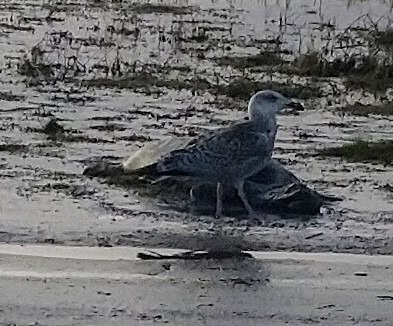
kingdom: Animalia
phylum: Chordata
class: Aves
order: Charadriiformes
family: Laridae
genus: Larus
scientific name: Larus marinus
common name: Svartbag
